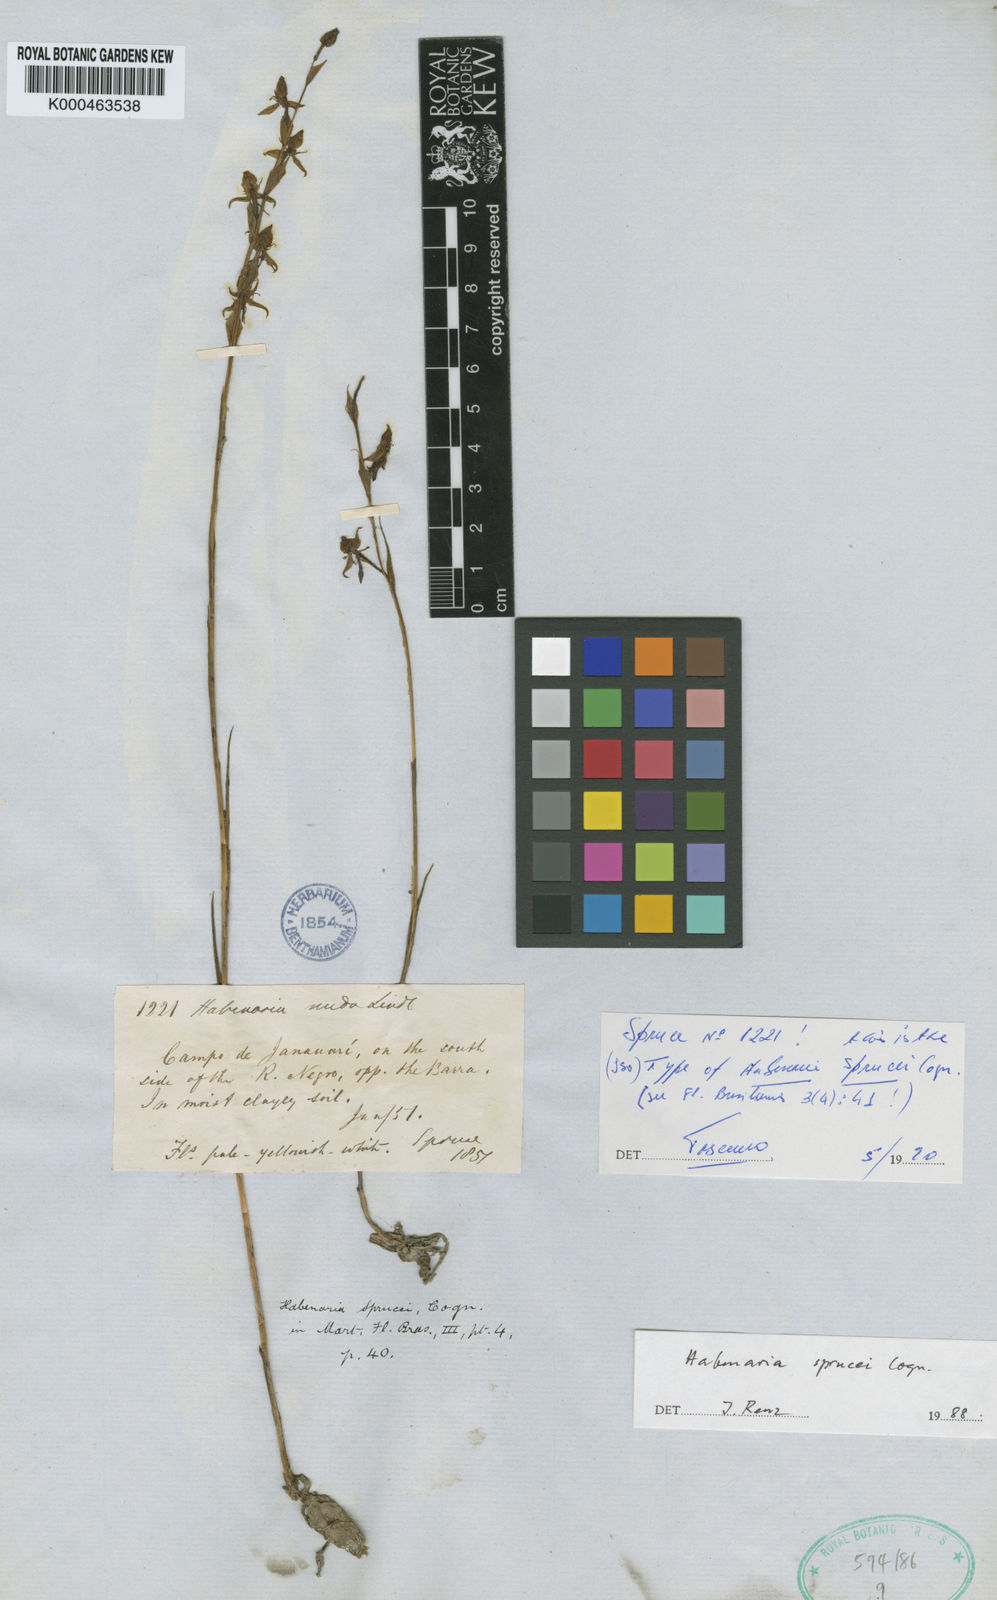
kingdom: Plantae
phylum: Tracheophyta
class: Liliopsida
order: Asparagales
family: Orchidaceae
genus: Habenaria
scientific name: Habenaria sprucei
